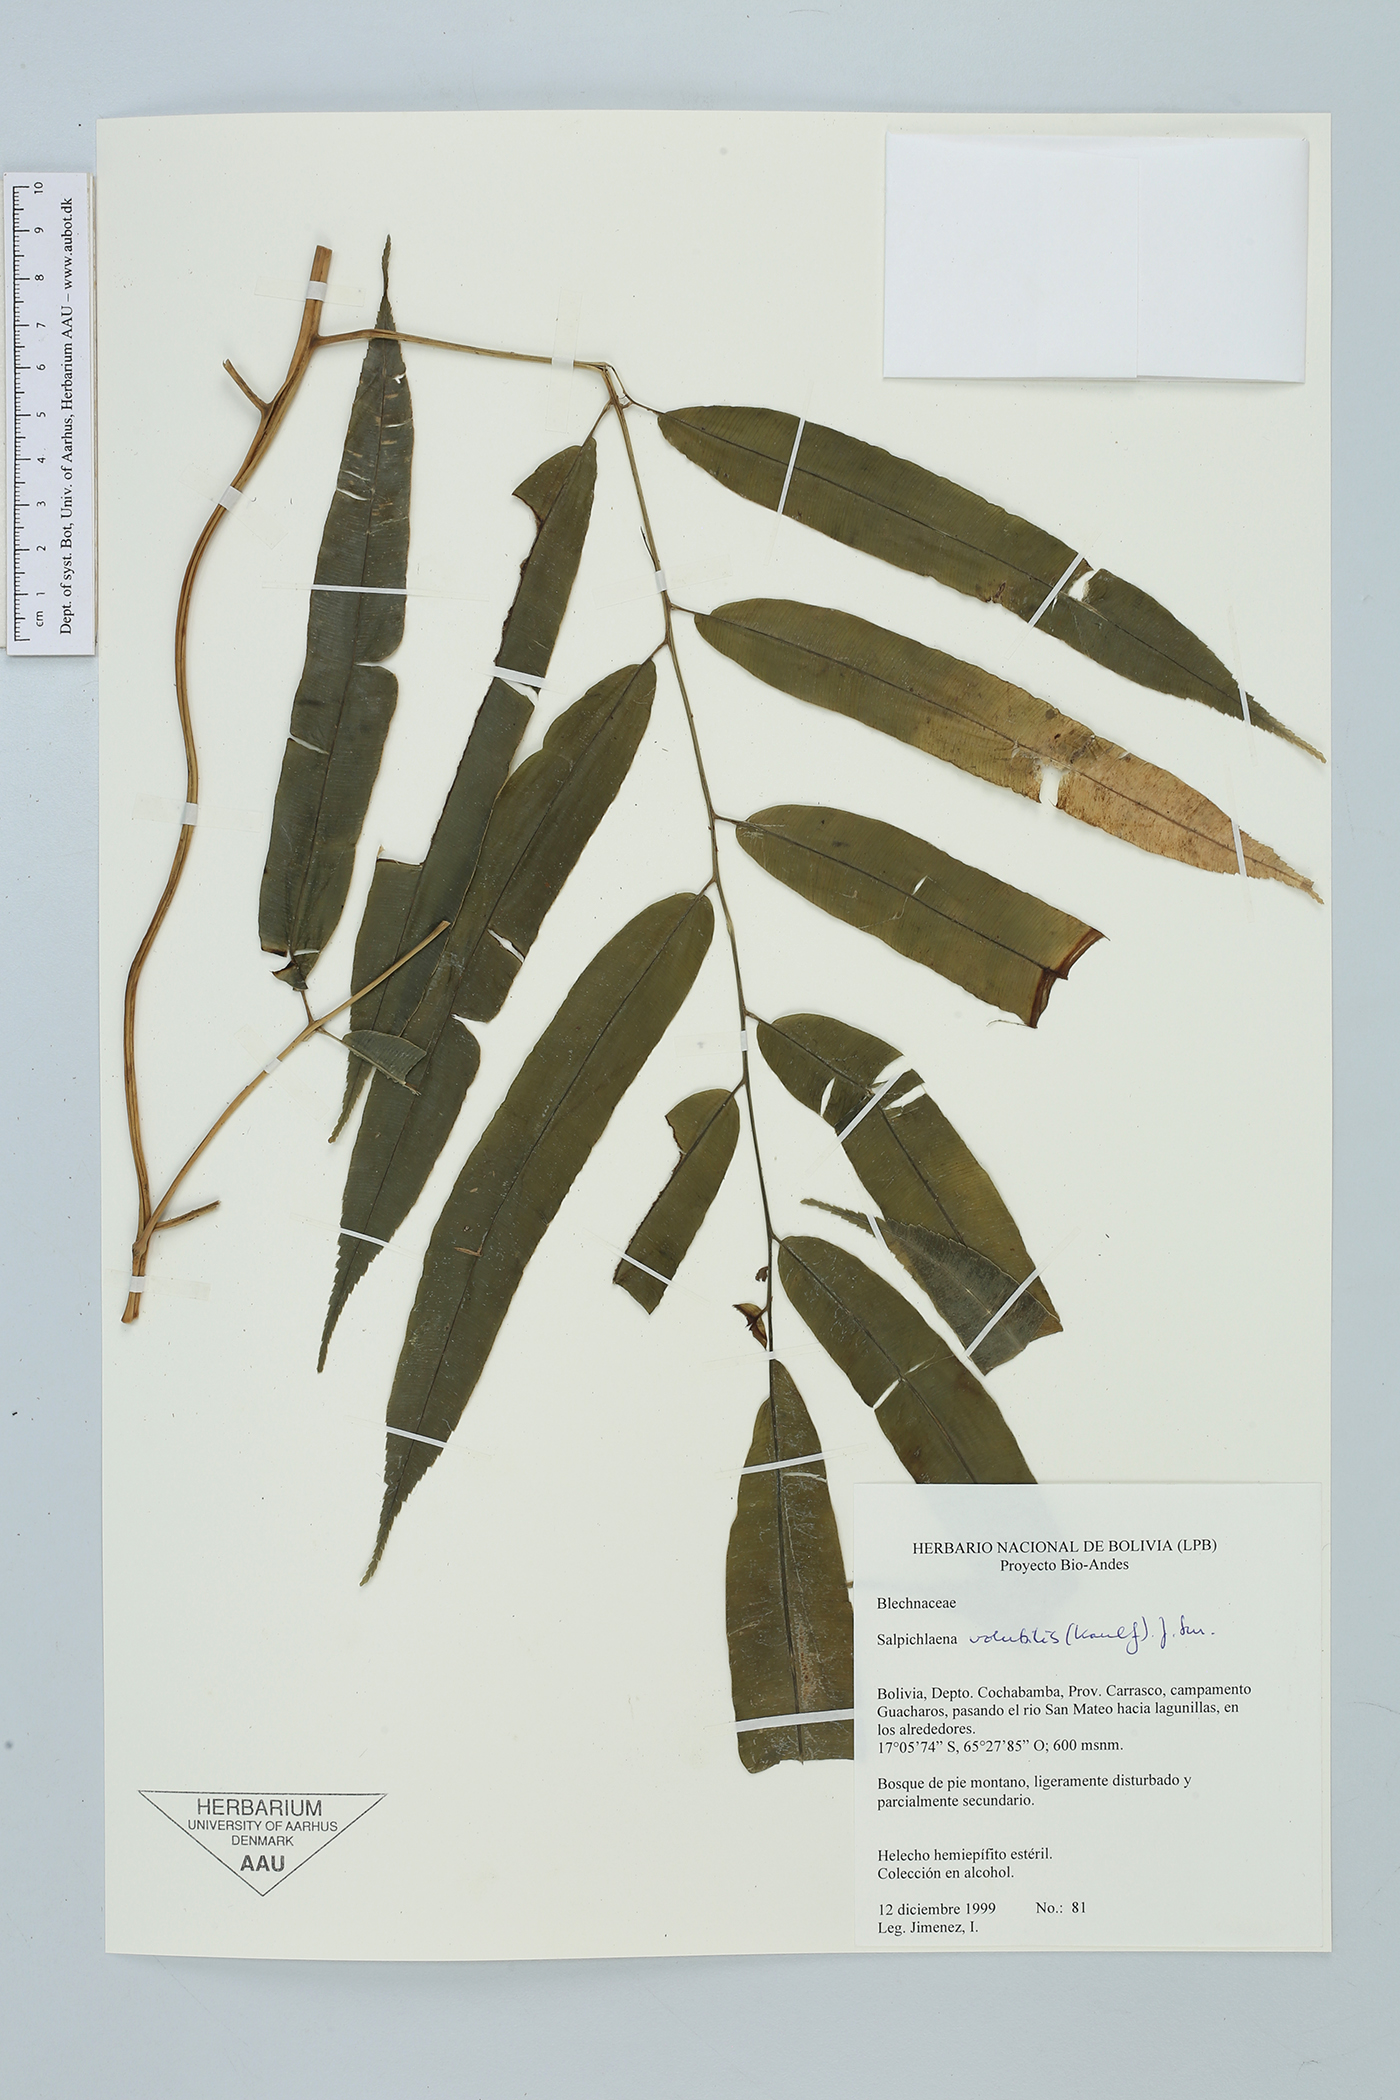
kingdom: Plantae
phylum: Tracheophyta
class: Polypodiopsida
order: Polypodiales
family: Blechnaceae
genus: Salpichlaena
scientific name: Salpichlaena hookeriana
